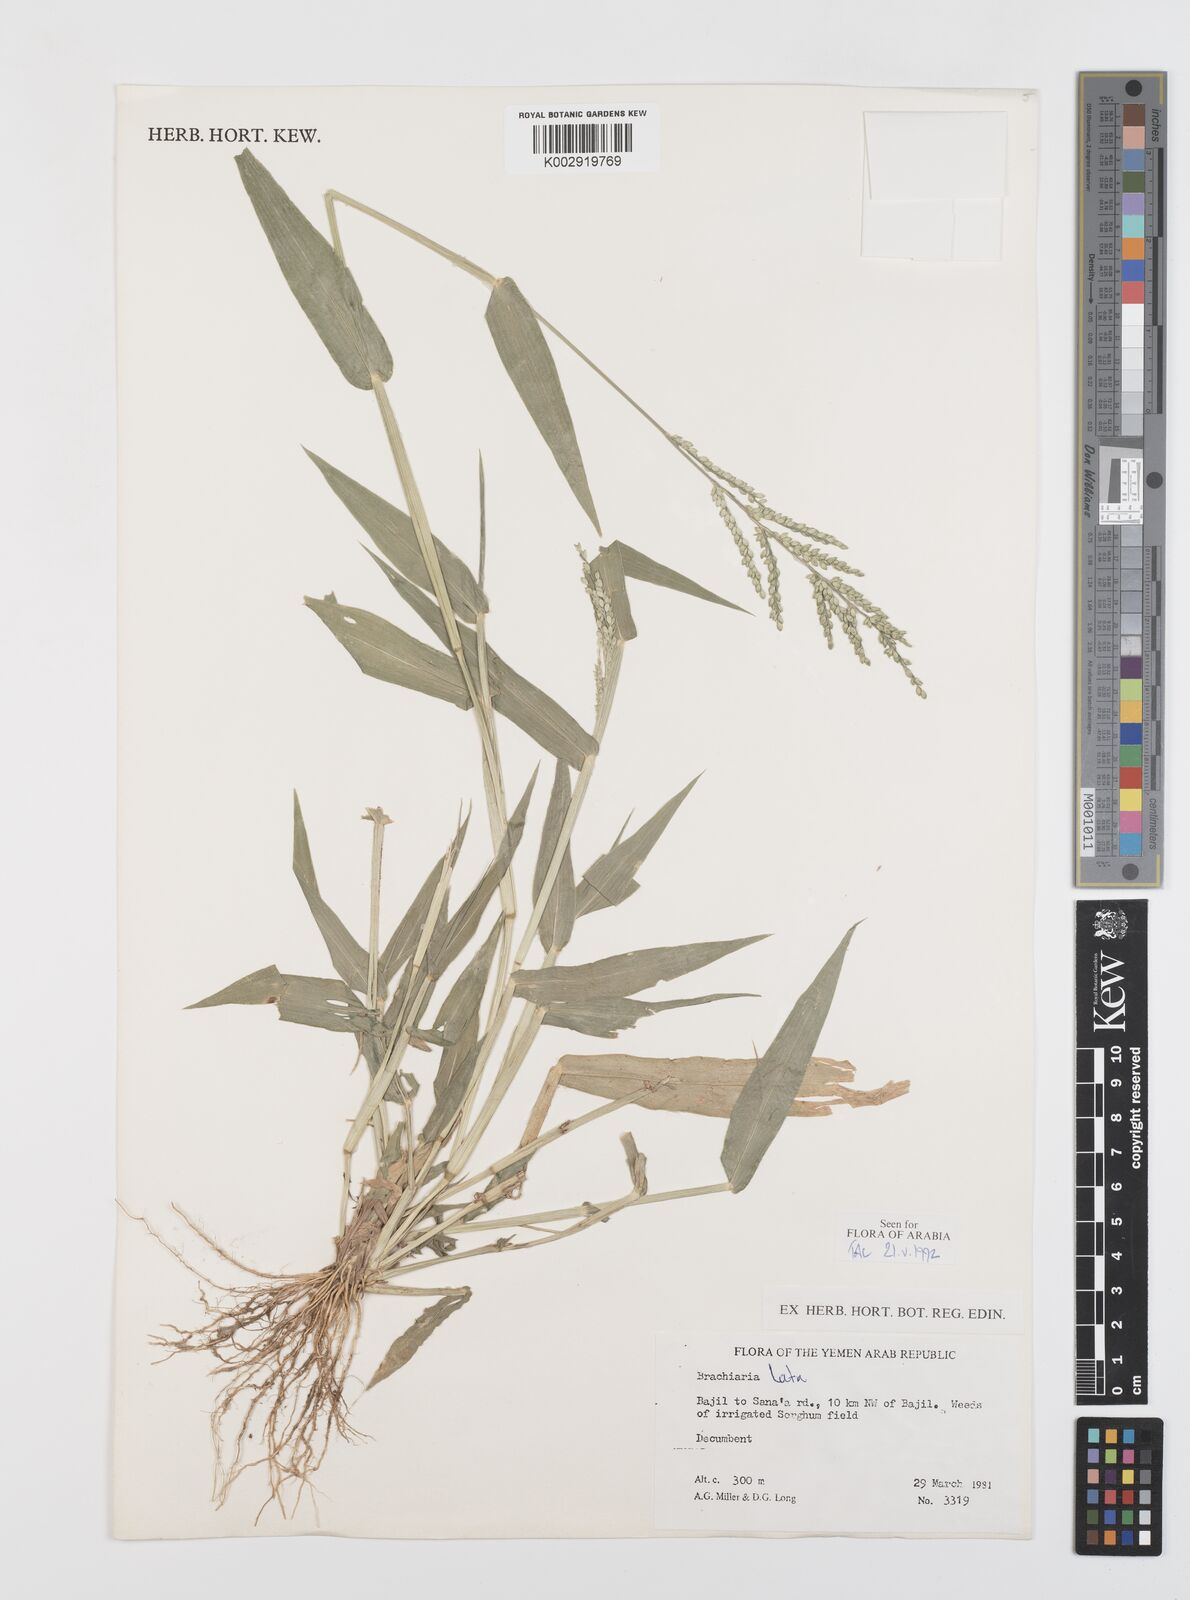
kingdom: Plantae
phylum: Tracheophyta
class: Liliopsida
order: Poales
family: Poaceae
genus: Urochloa
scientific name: Urochloa lata
